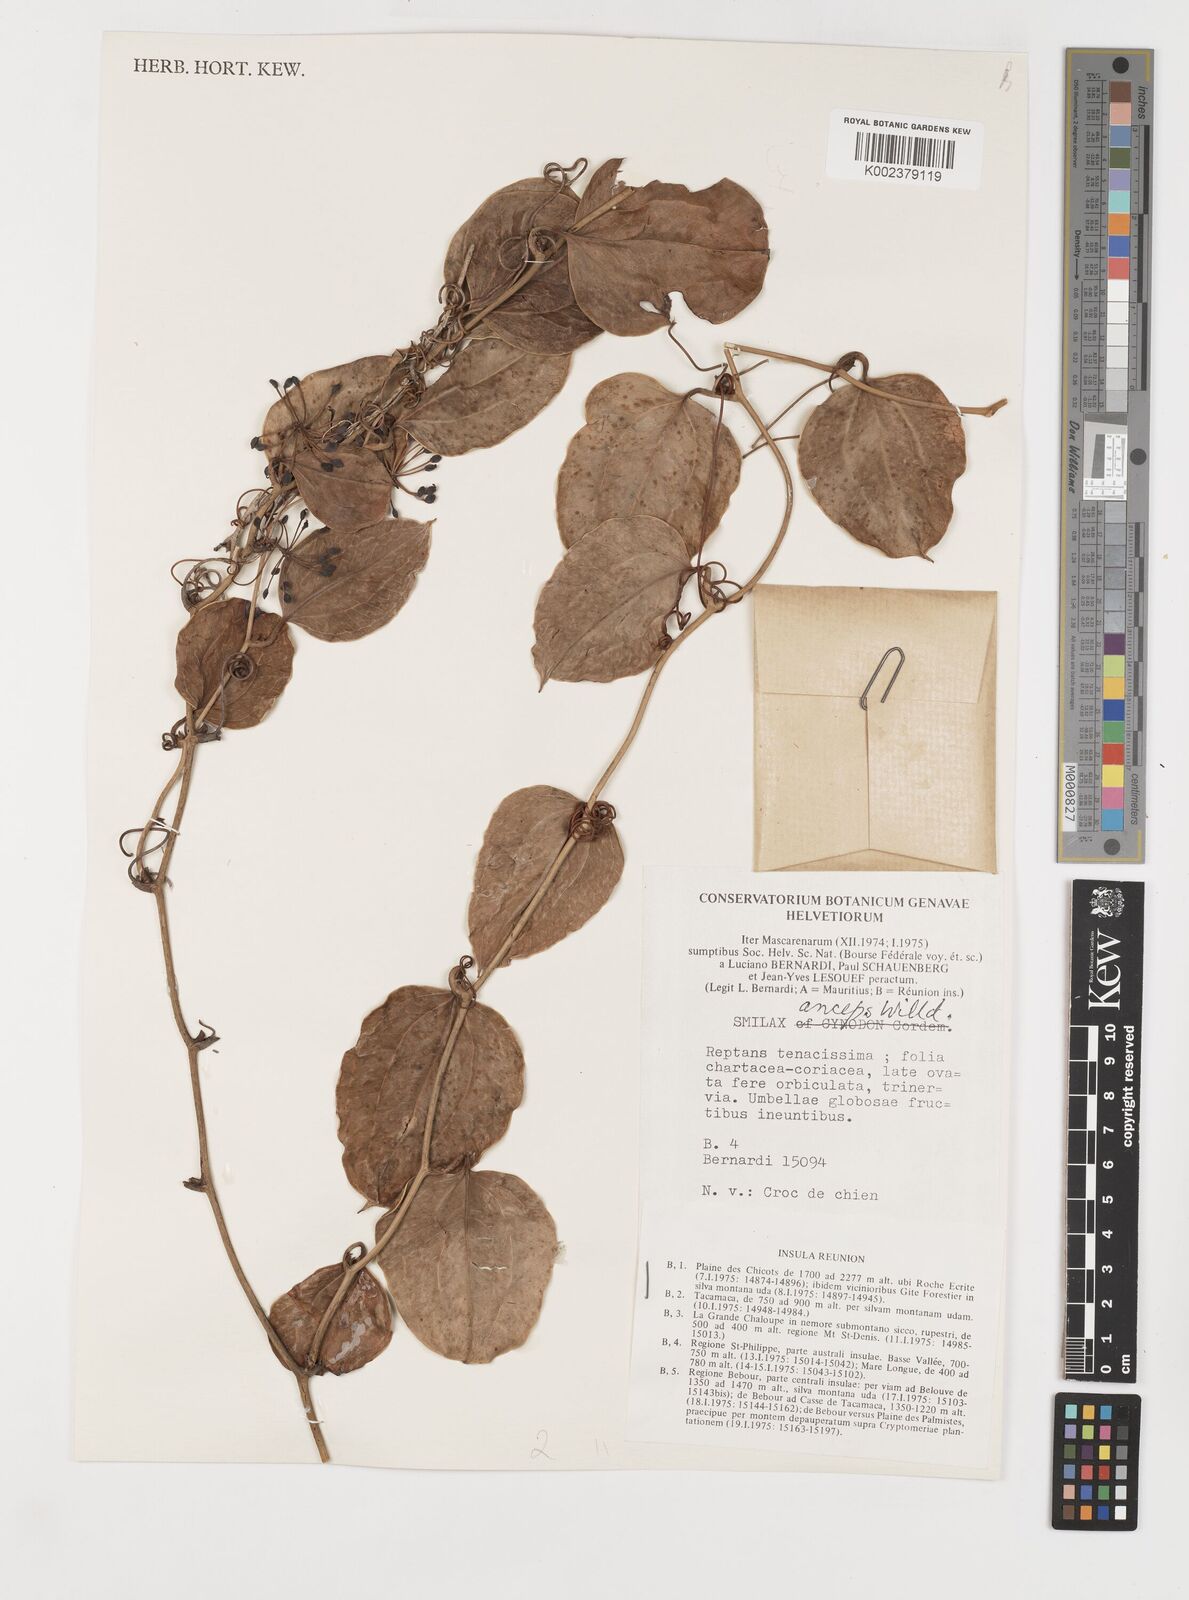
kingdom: Plantae
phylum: Tracheophyta
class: Liliopsida
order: Liliales
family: Smilacaceae
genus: Smilax
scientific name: Smilax anceps
